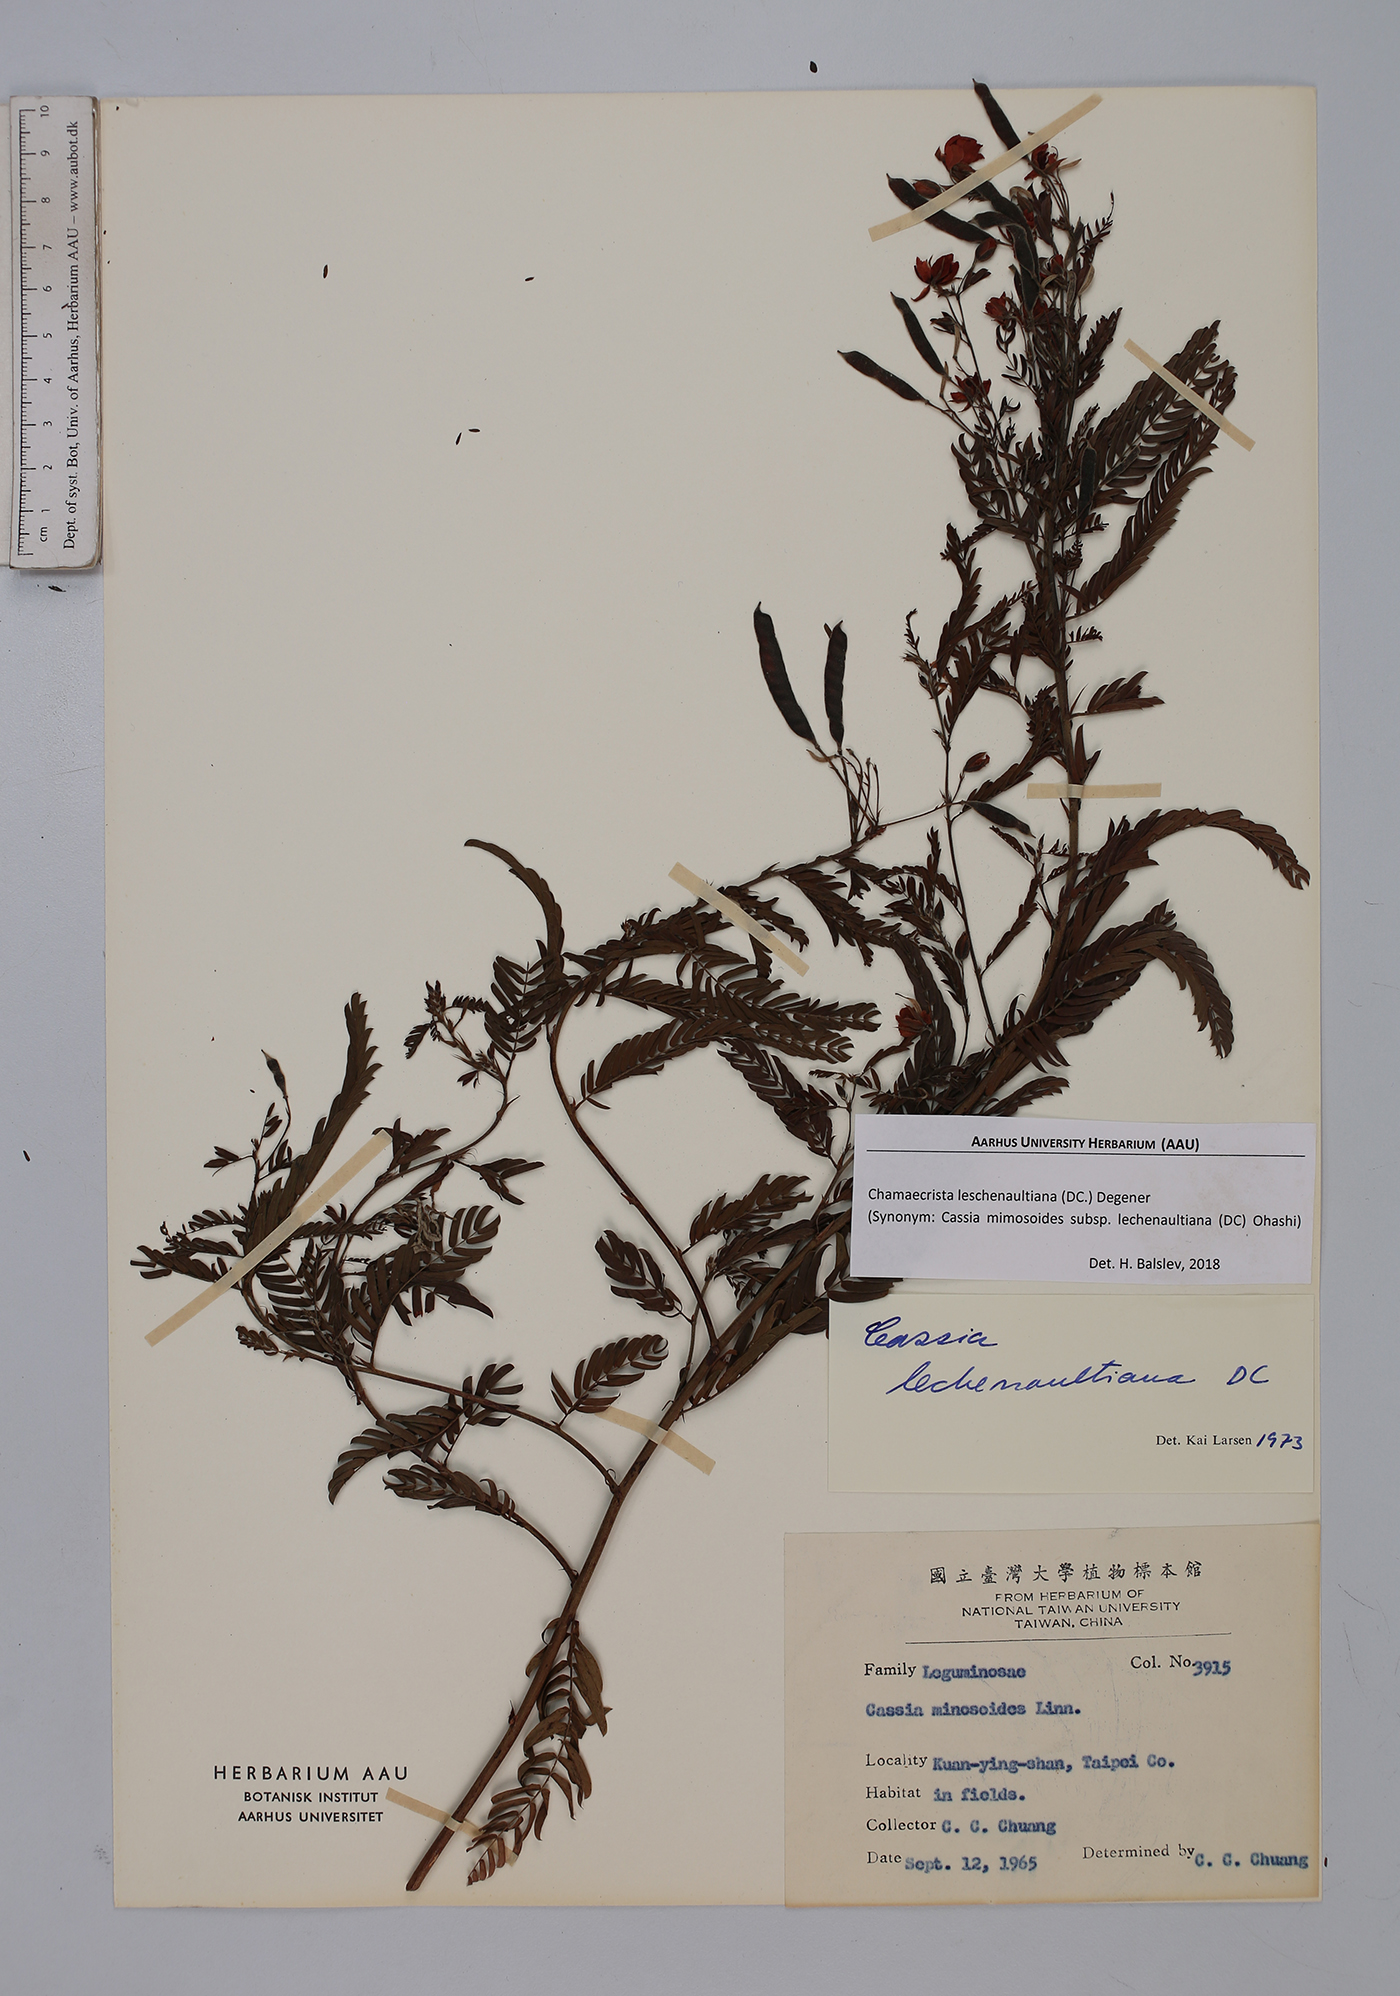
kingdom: Plantae
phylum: Tracheophyta
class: Magnoliopsida
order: Fabales
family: Fabaceae
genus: Chamaecrista
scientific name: Chamaecrista nictitans
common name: Sensitive cassia
